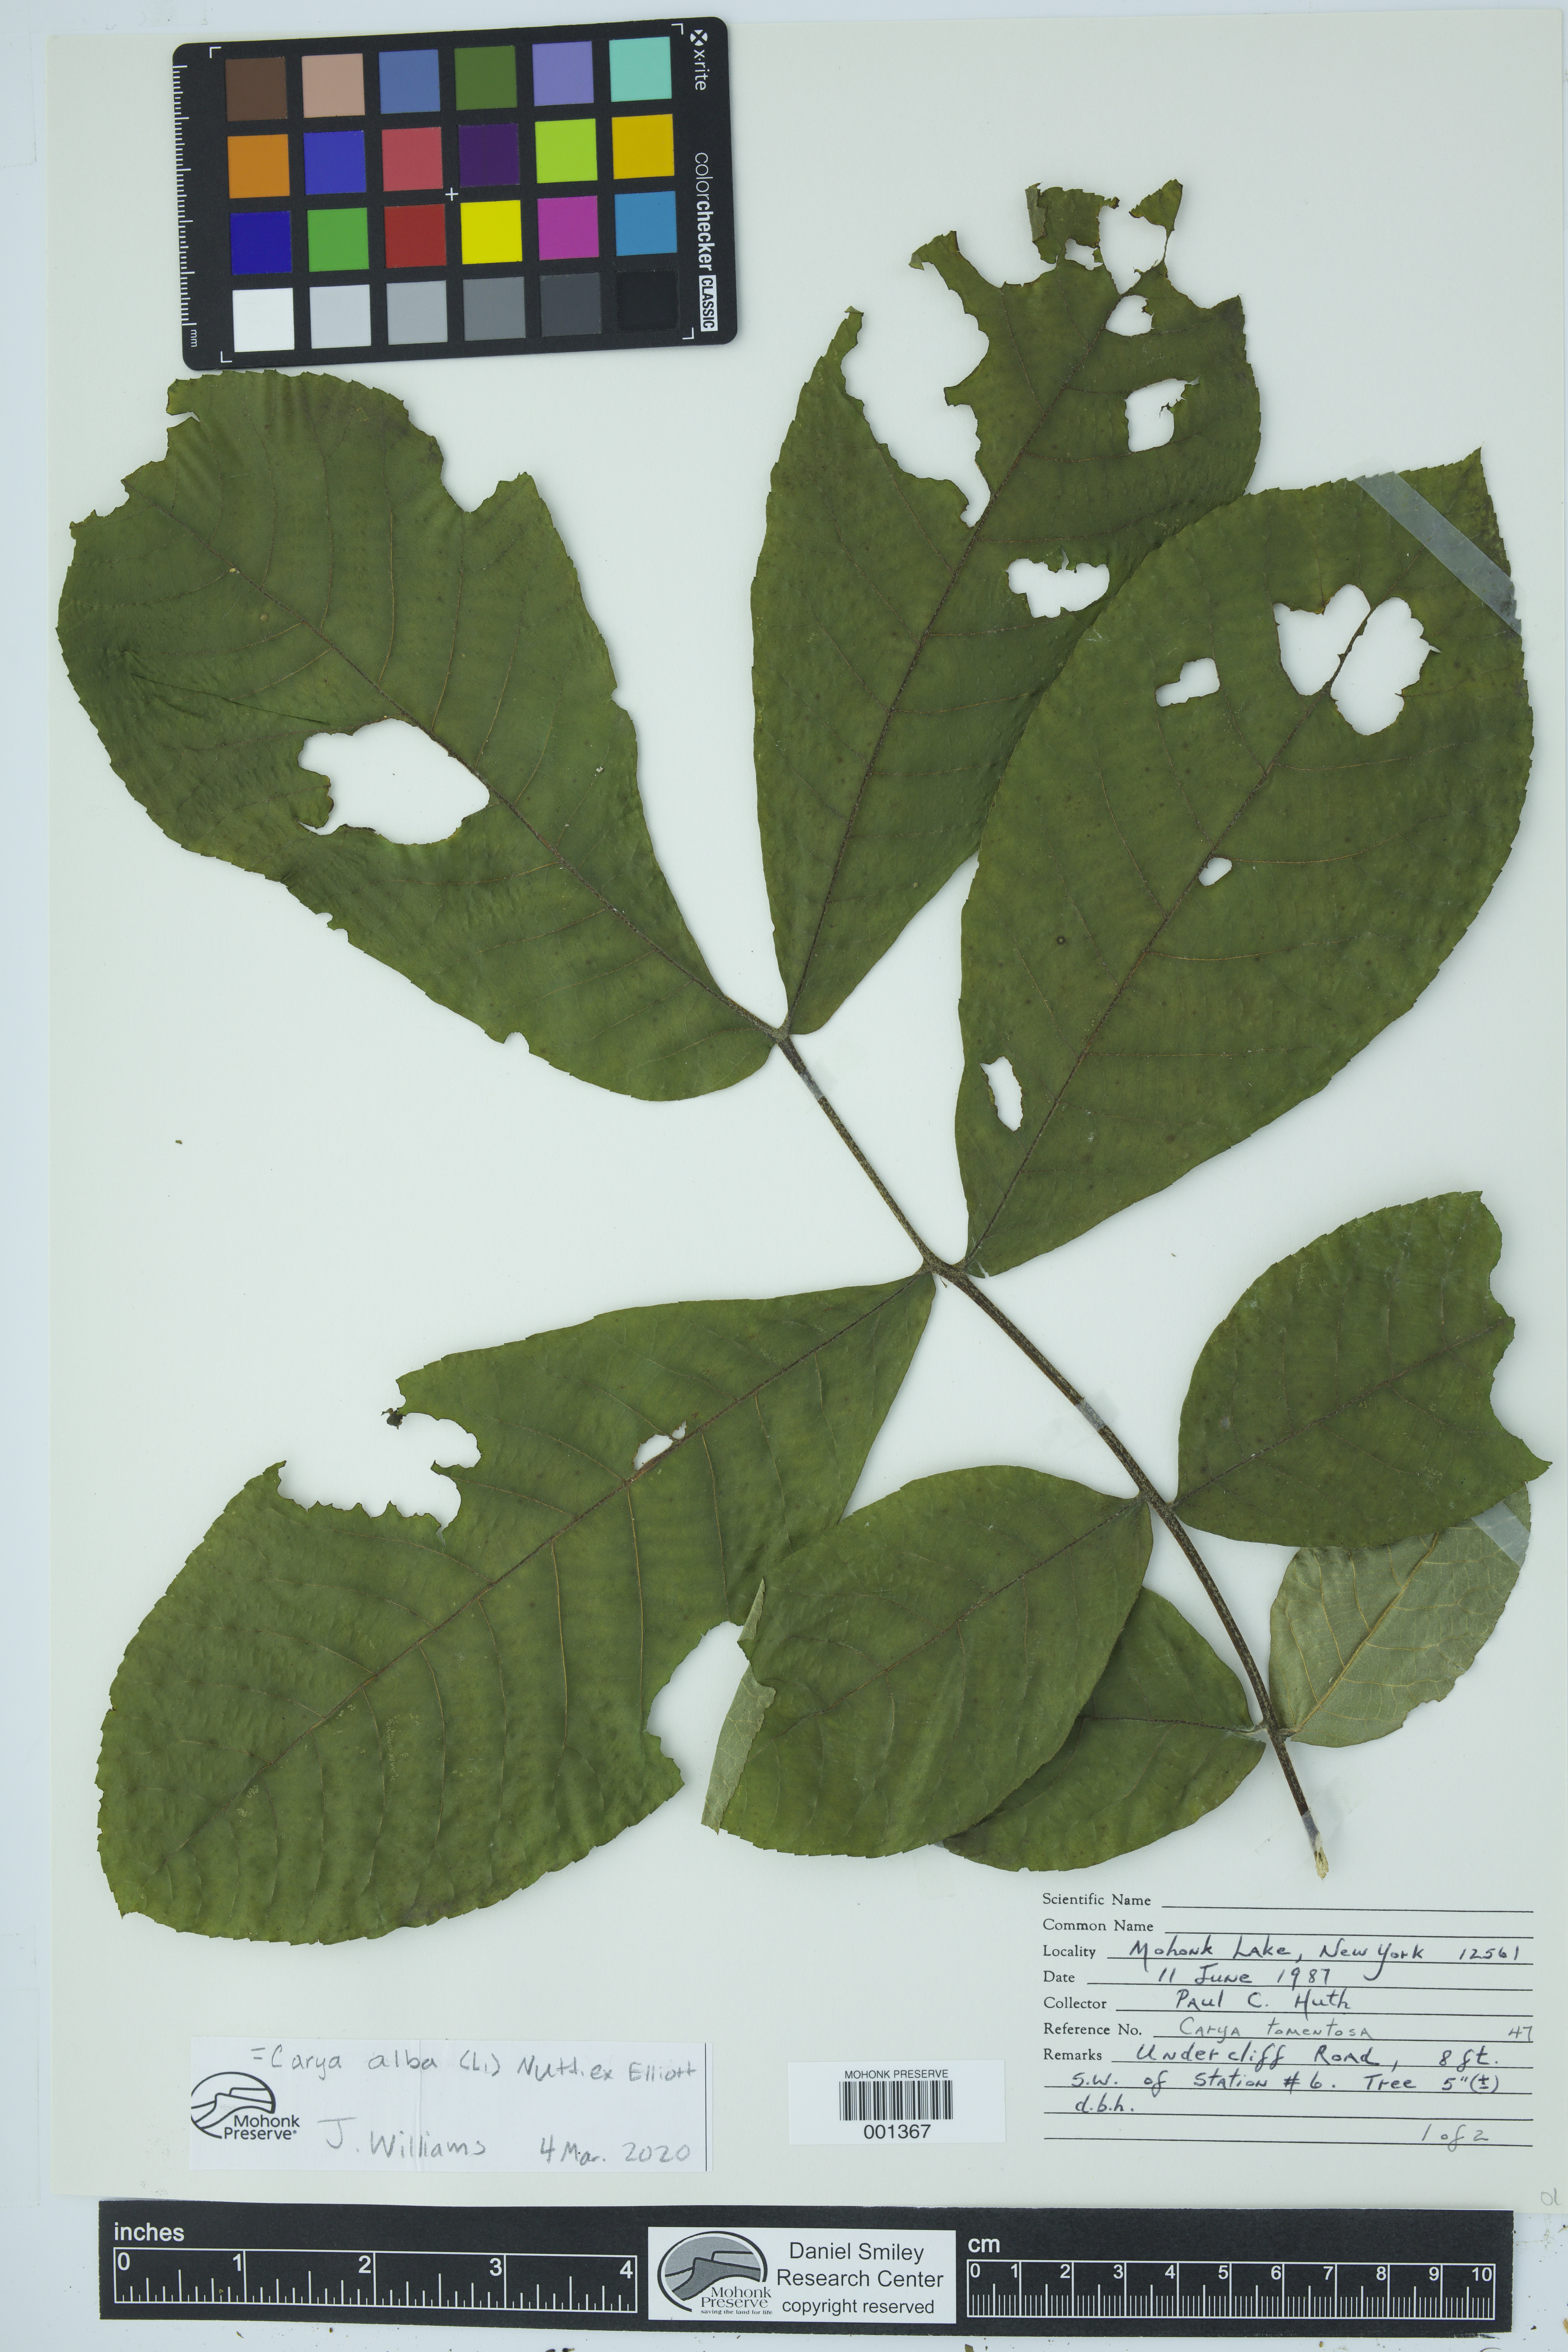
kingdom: Plantae
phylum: Tracheophyta
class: Magnoliopsida
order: Fagales
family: Juglandaceae
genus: Carya
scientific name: Carya alba
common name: Mockernut hickory
